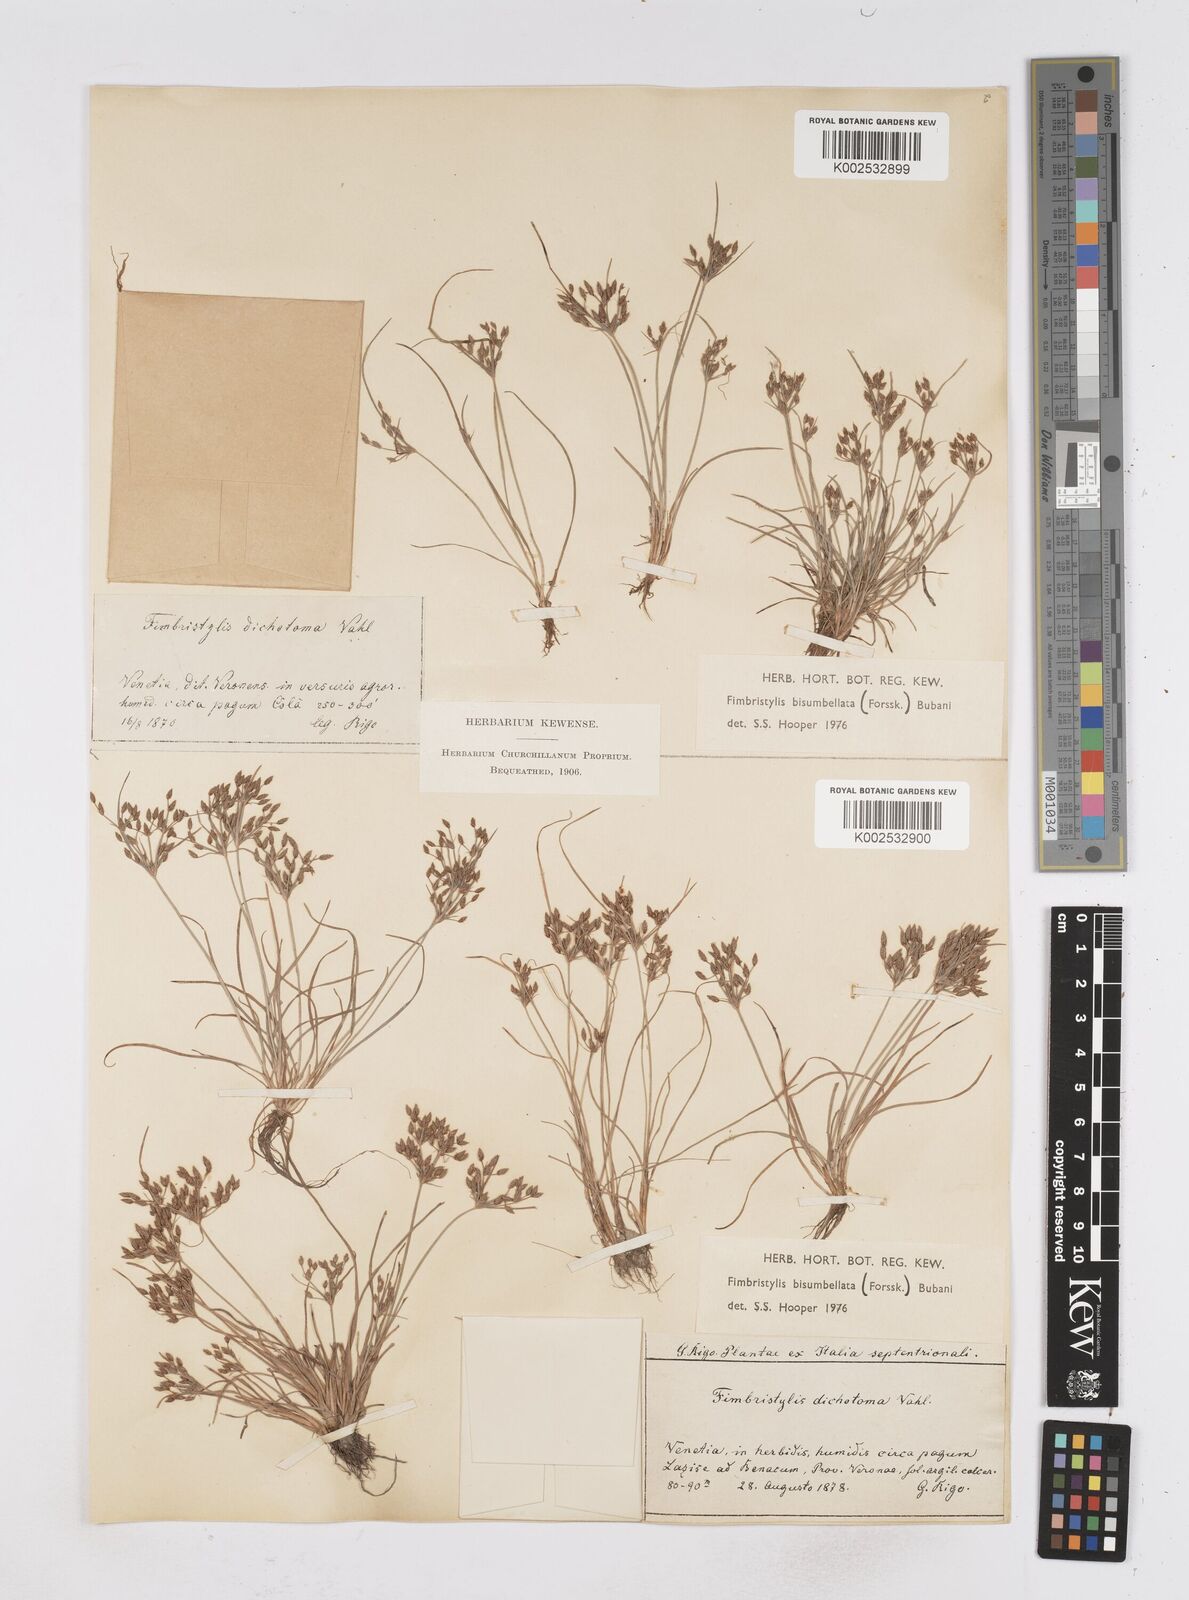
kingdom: Plantae
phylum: Tracheophyta
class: Liliopsida
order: Poales
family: Cyperaceae
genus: Fimbristylis
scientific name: Fimbristylis bisumbellata
